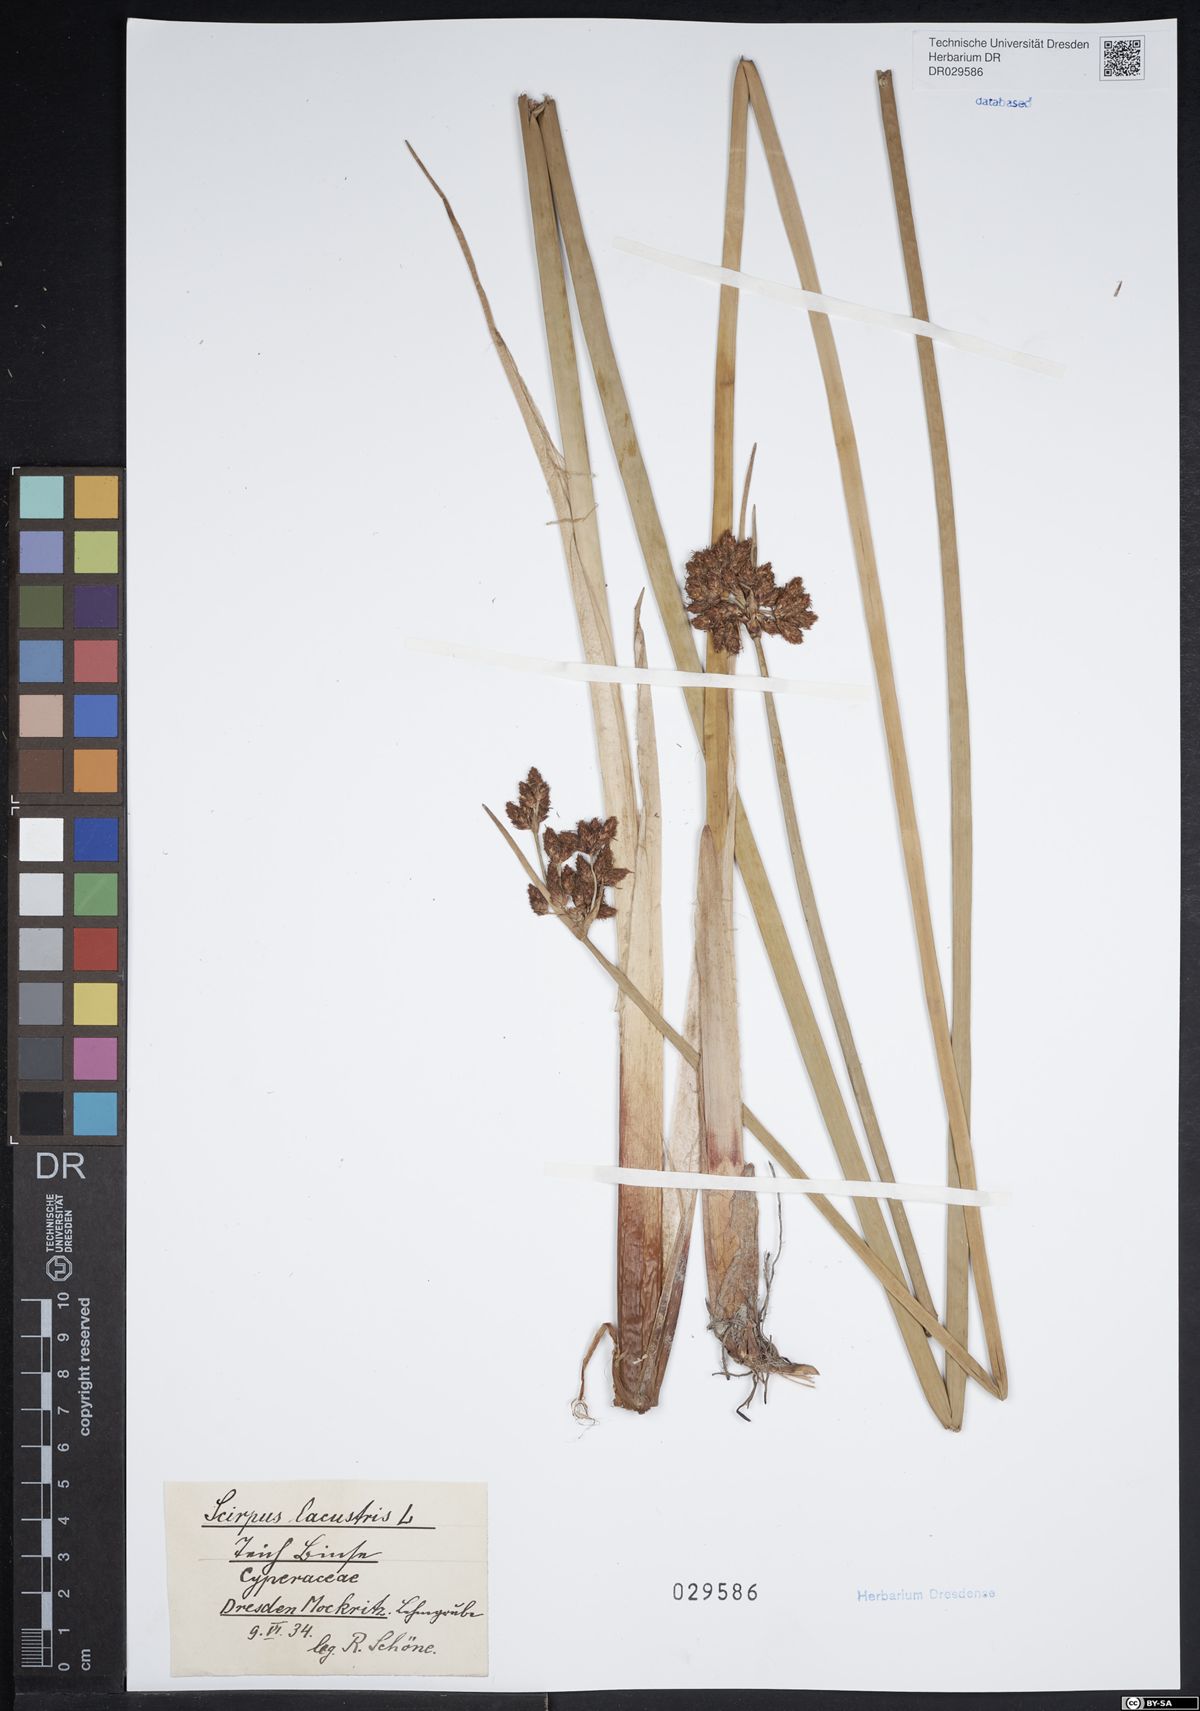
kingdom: Plantae
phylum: Tracheophyta
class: Liliopsida
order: Poales
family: Cyperaceae
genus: Schoenoplectus
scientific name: Schoenoplectus lacustris
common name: Common club-rush
